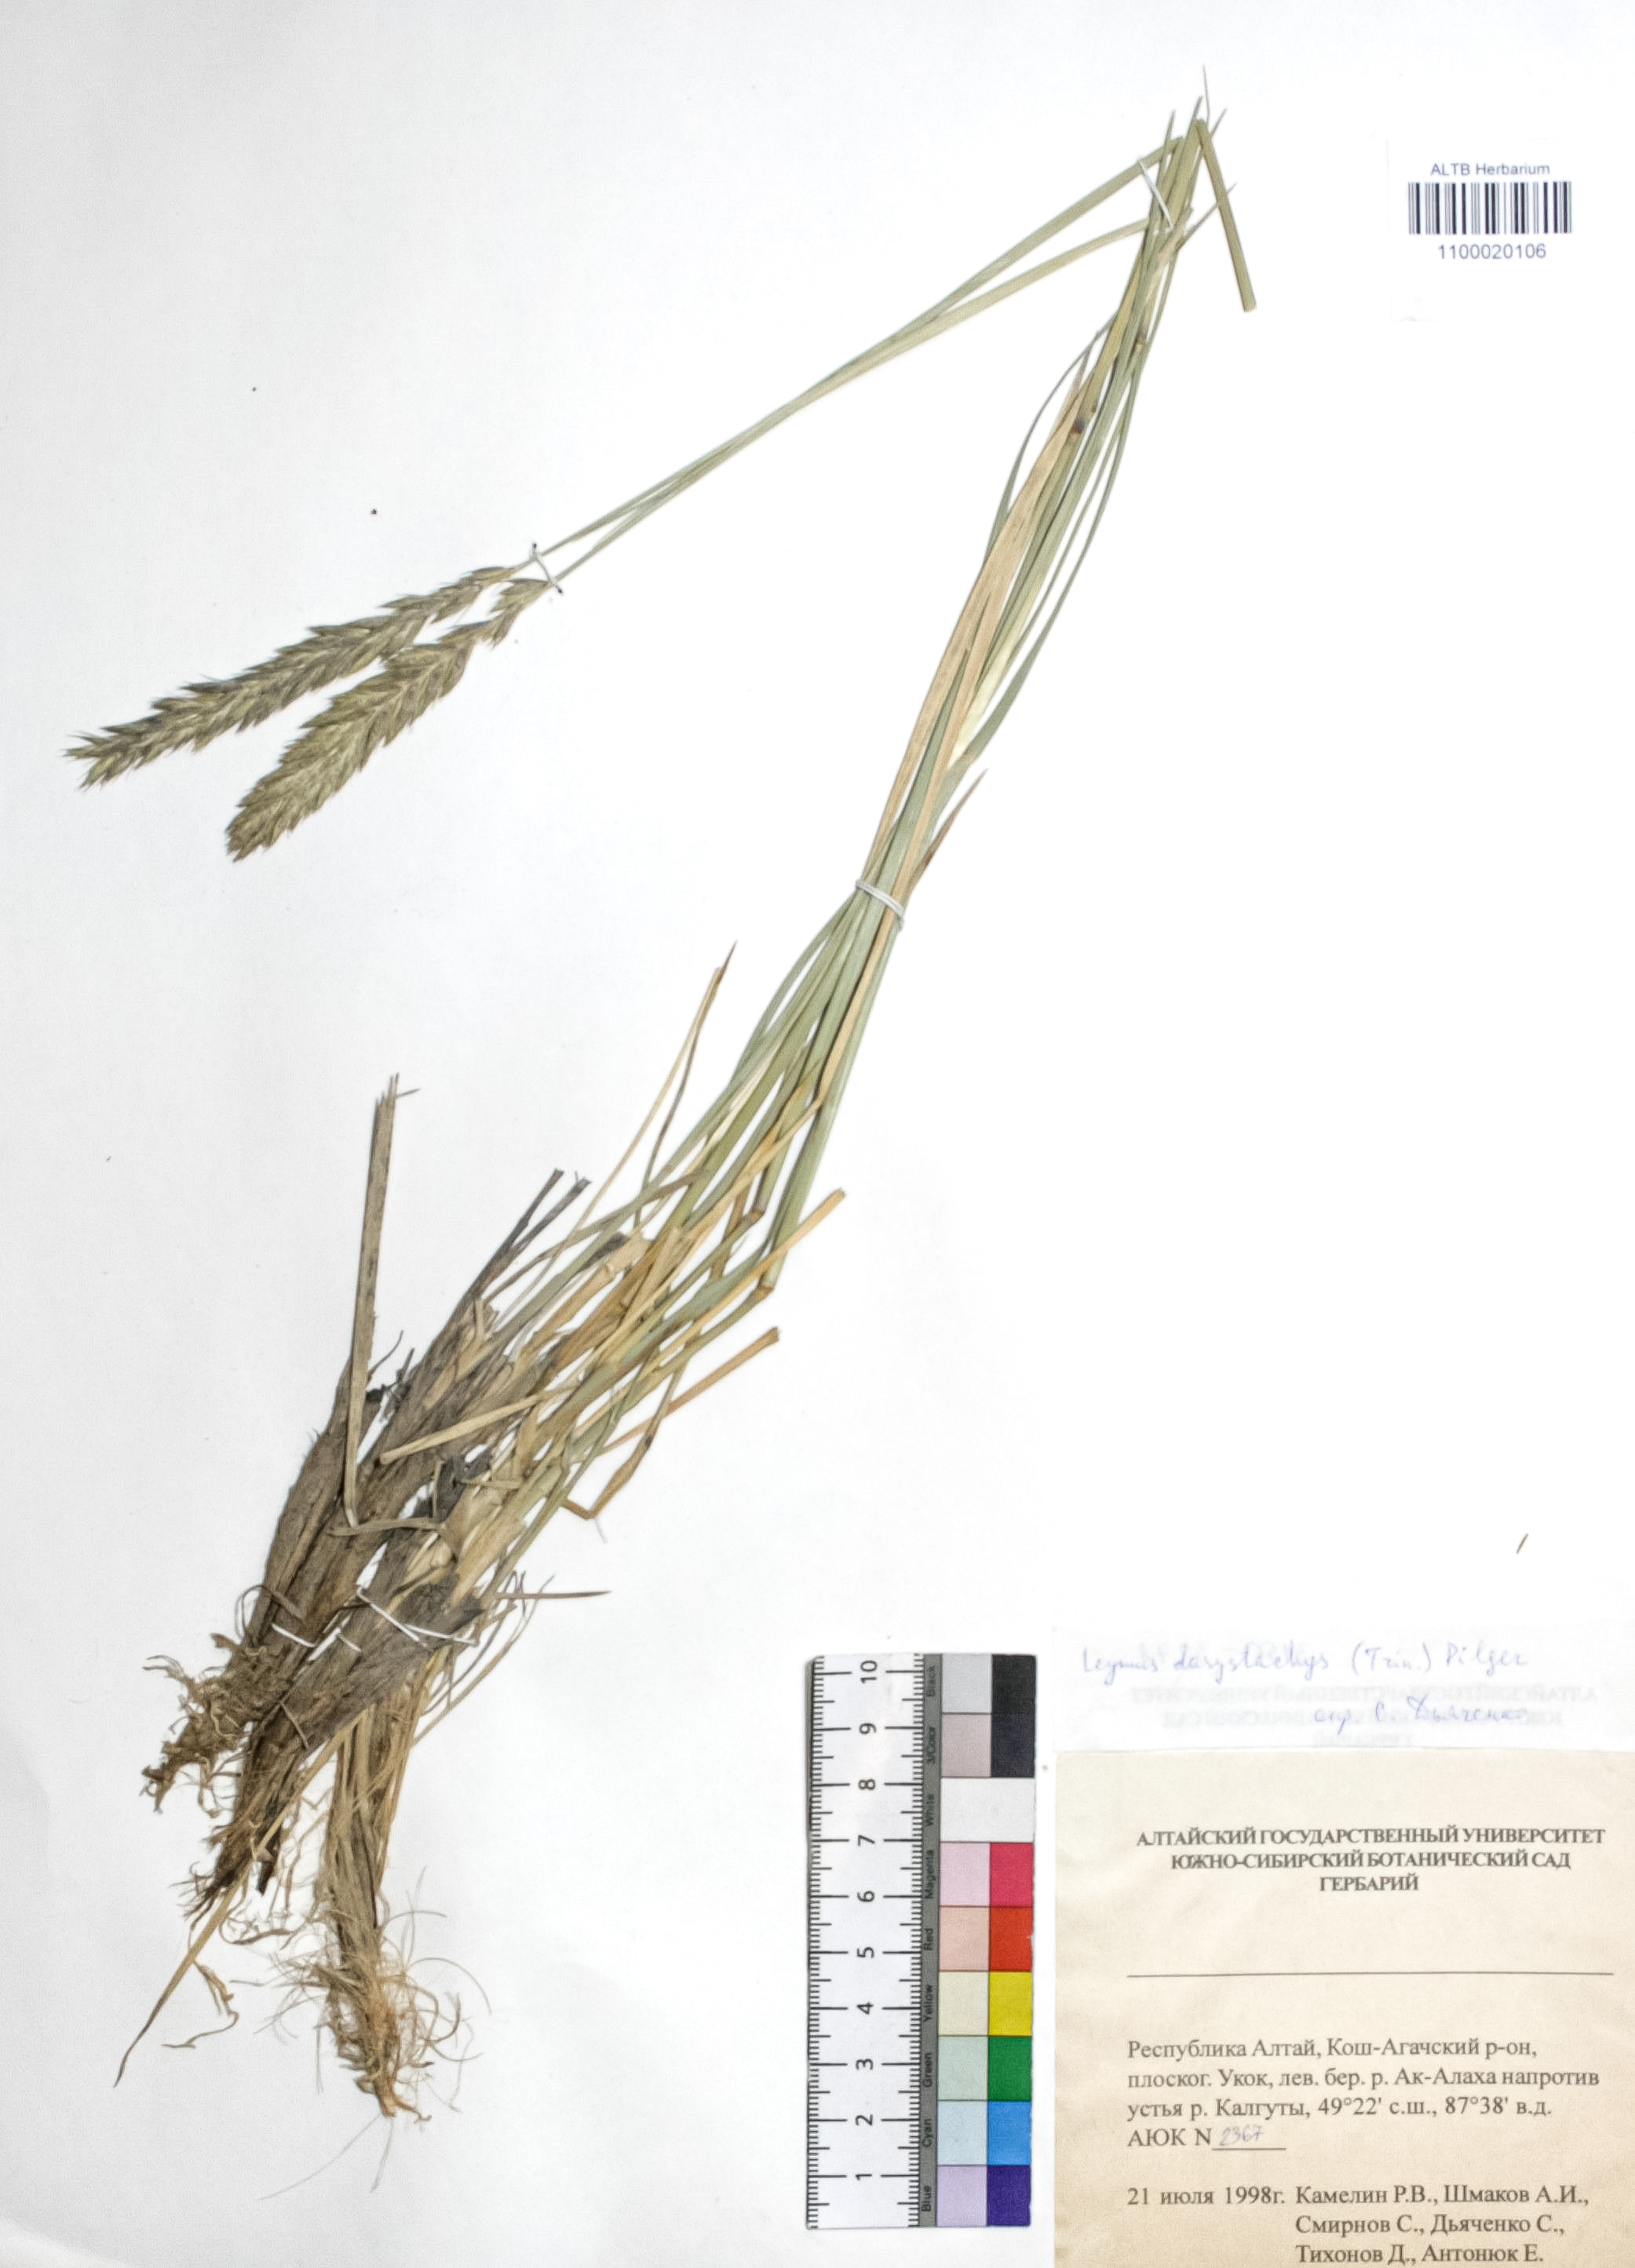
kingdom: Plantae
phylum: Tracheophyta
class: Liliopsida
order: Poales
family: Poaceae
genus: Leymus
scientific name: Leymus secalinus
